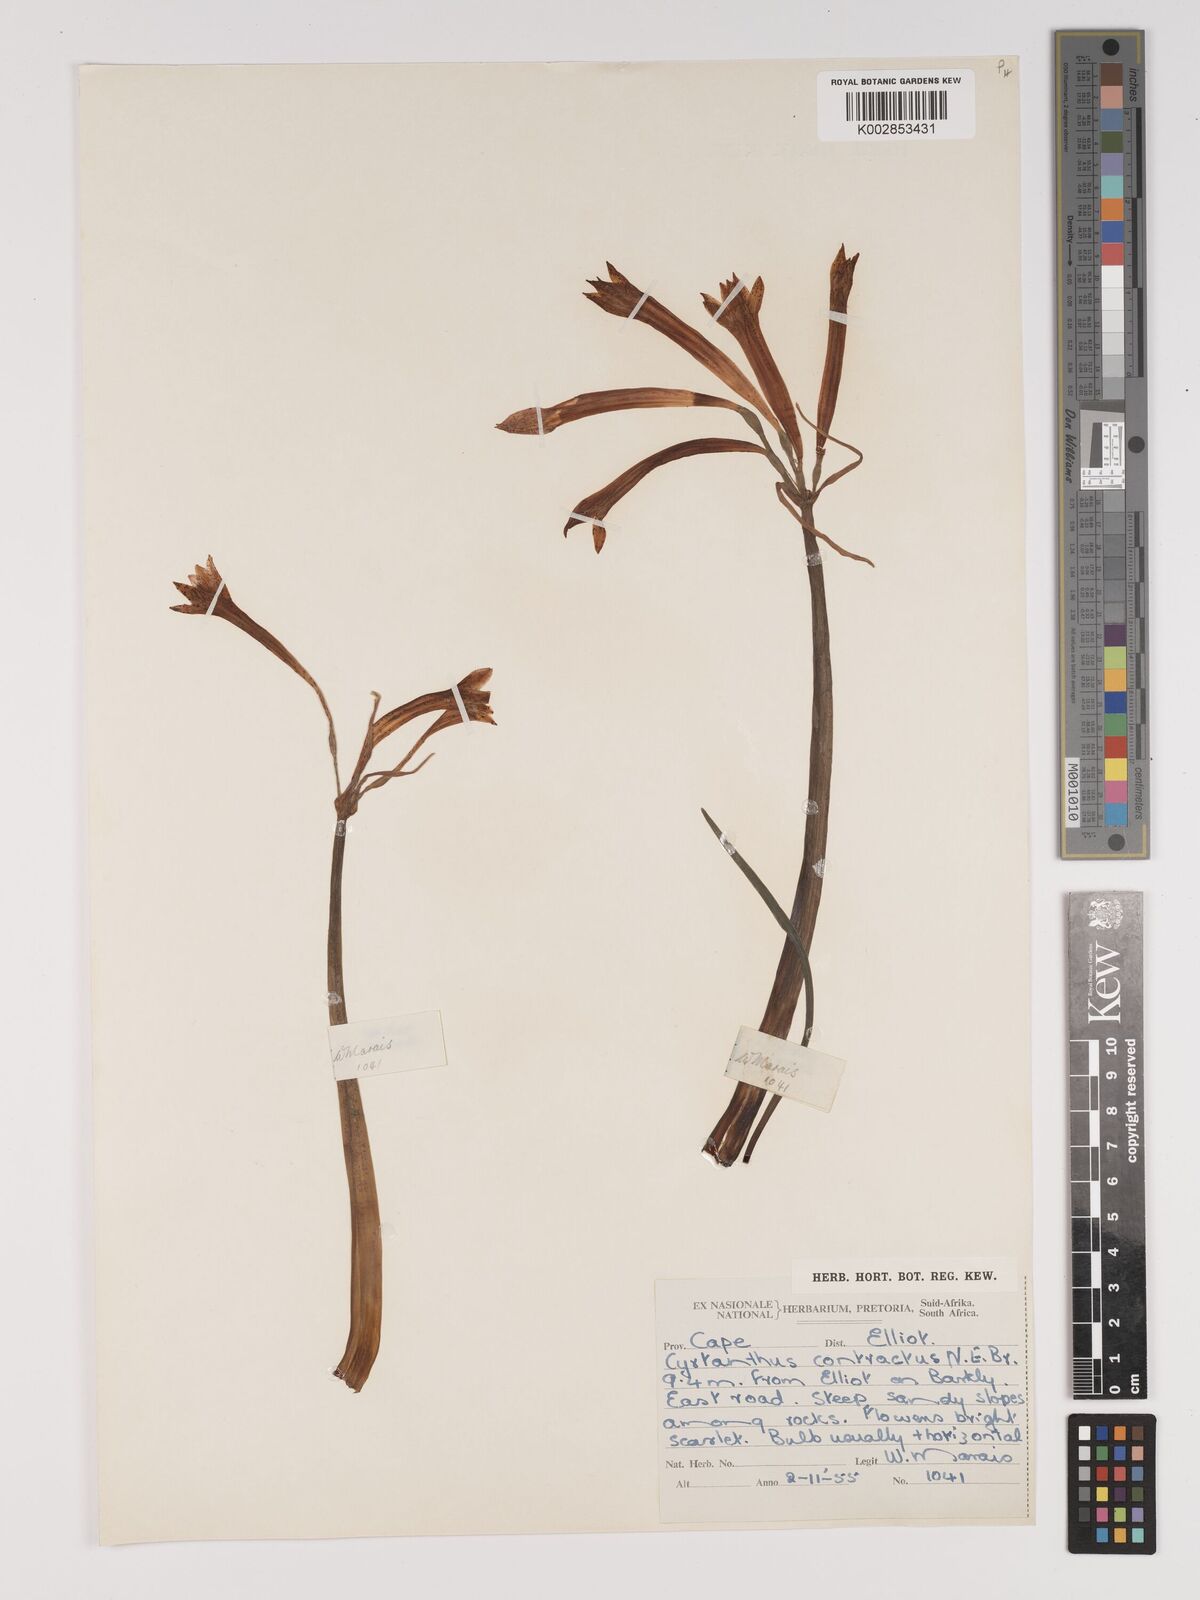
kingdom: Plantae
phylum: Tracheophyta
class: Liliopsida
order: Asparagales
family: Amaryllidaceae
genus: Cyrtanthus
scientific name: Cyrtanthus contractus
